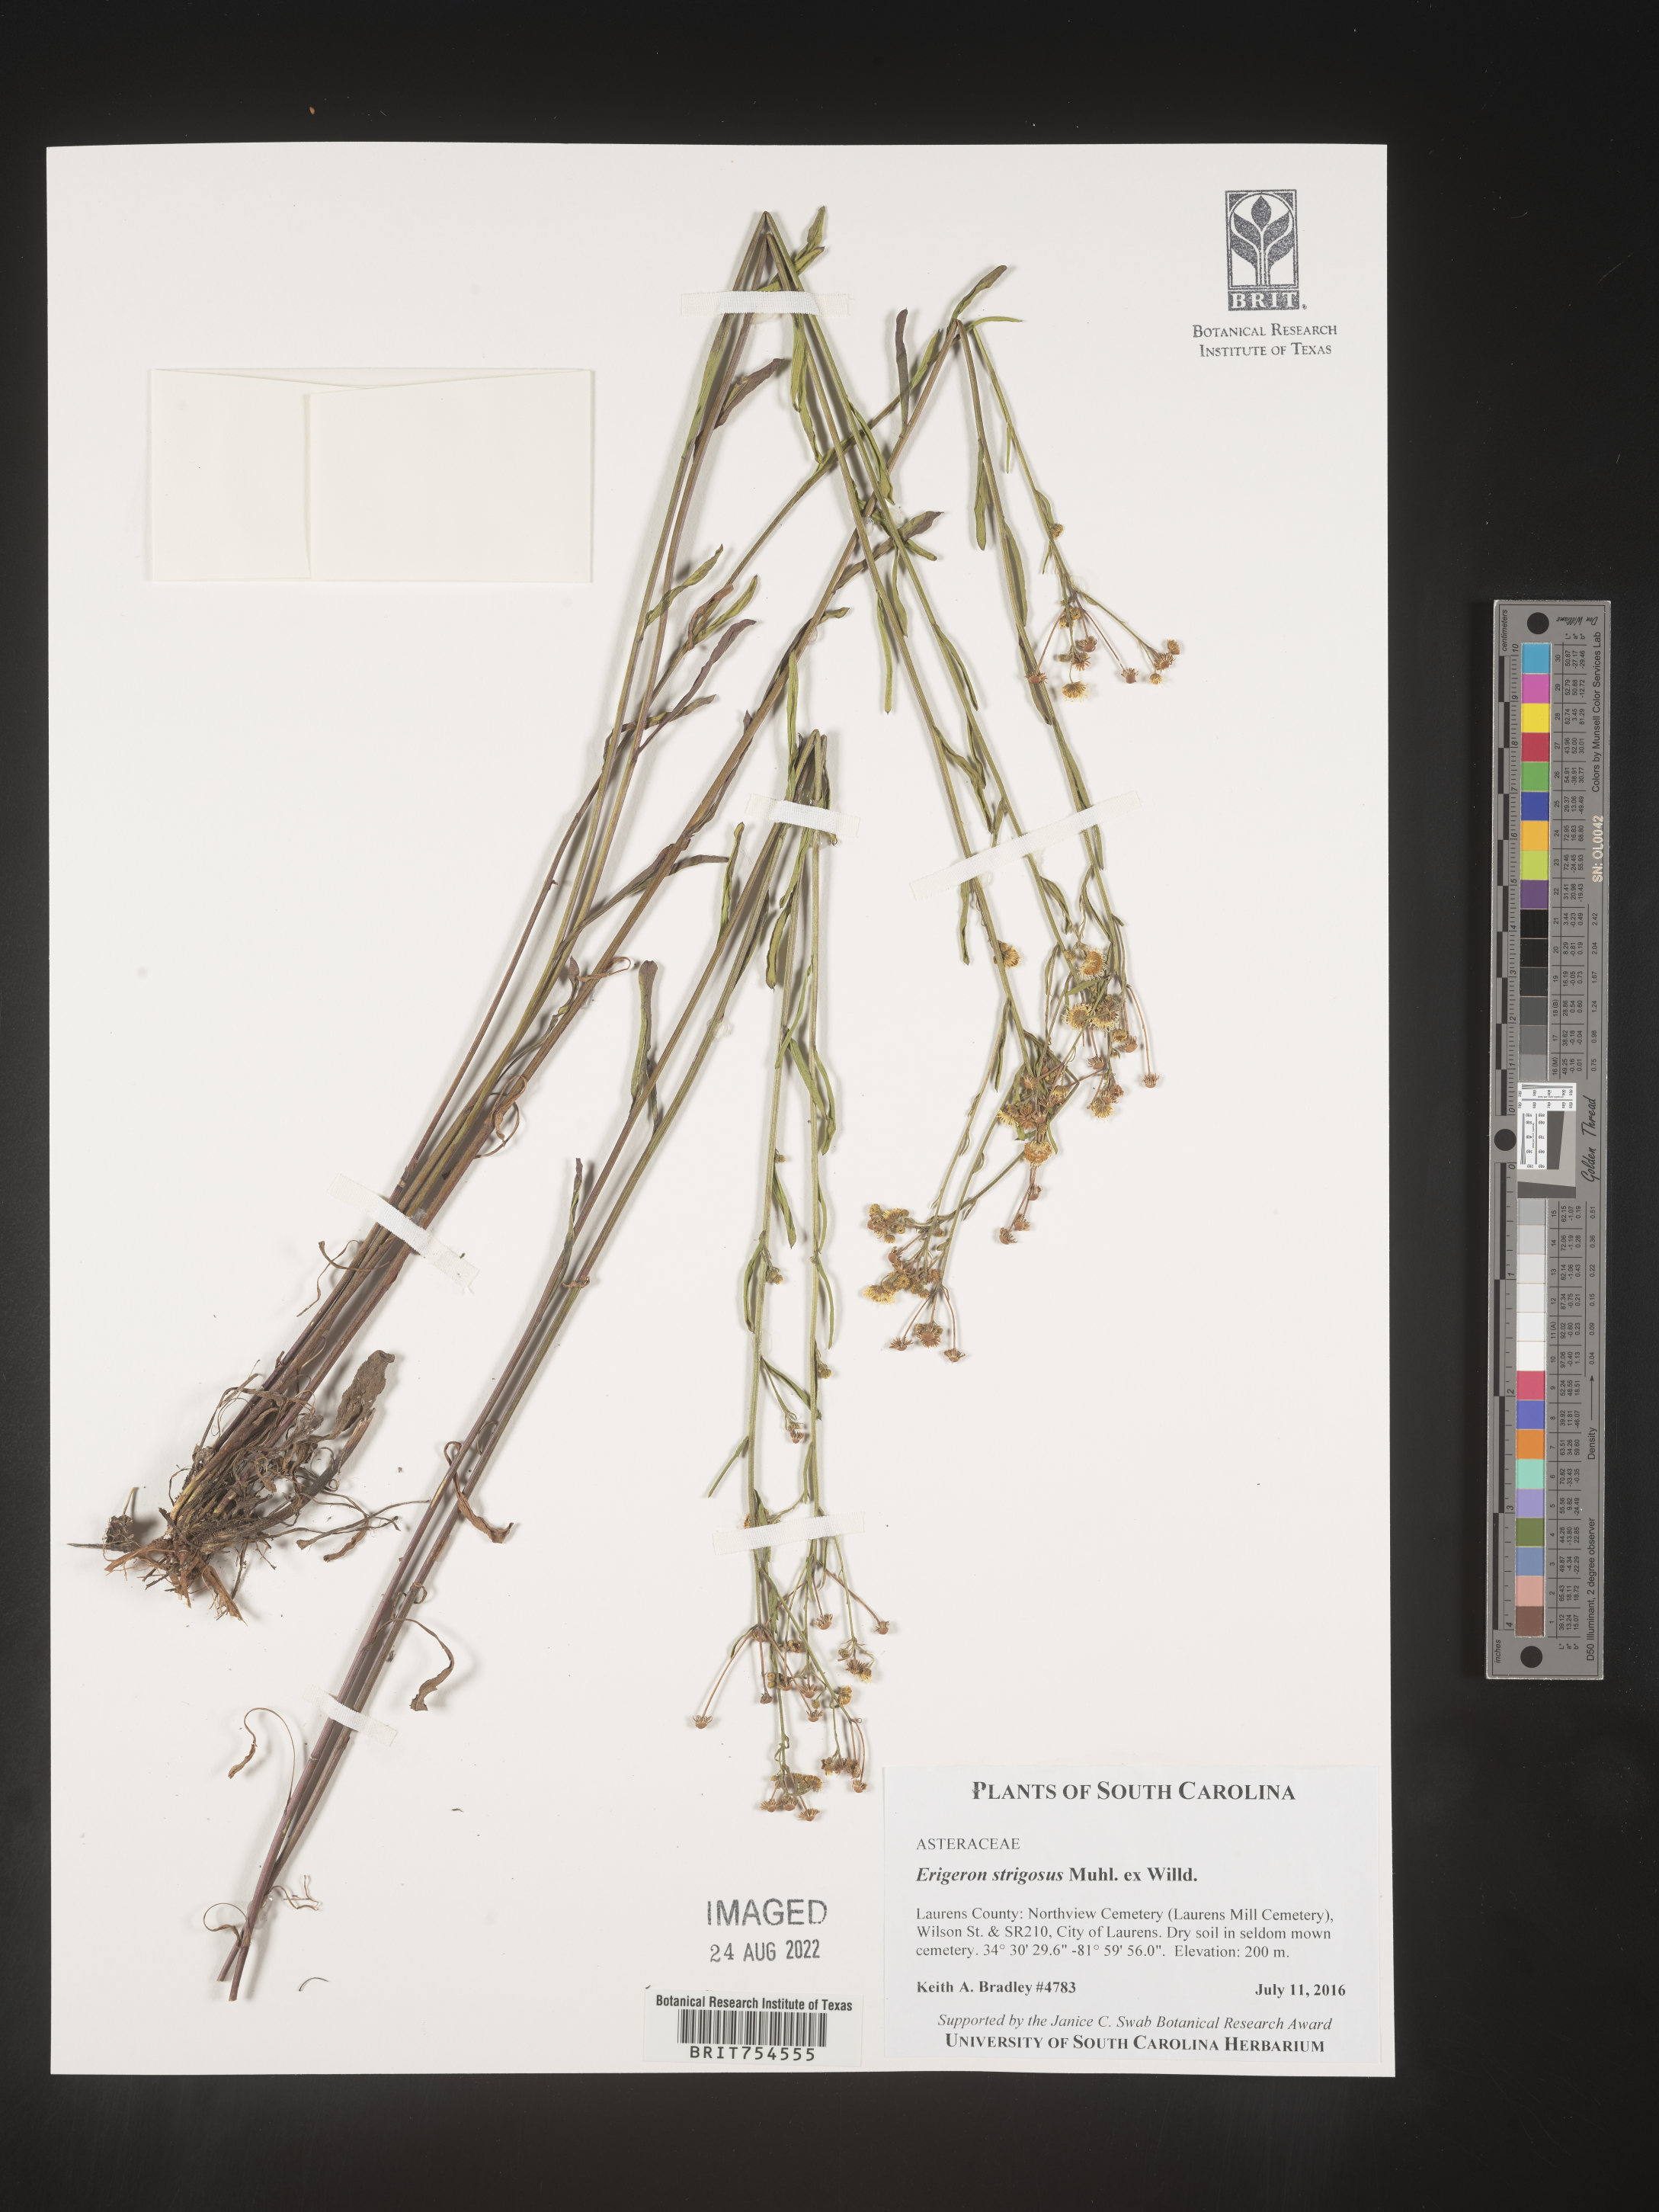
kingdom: Plantae
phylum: Tracheophyta
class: Magnoliopsida
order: Asterales
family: Asteraceae
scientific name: Asteraceae
